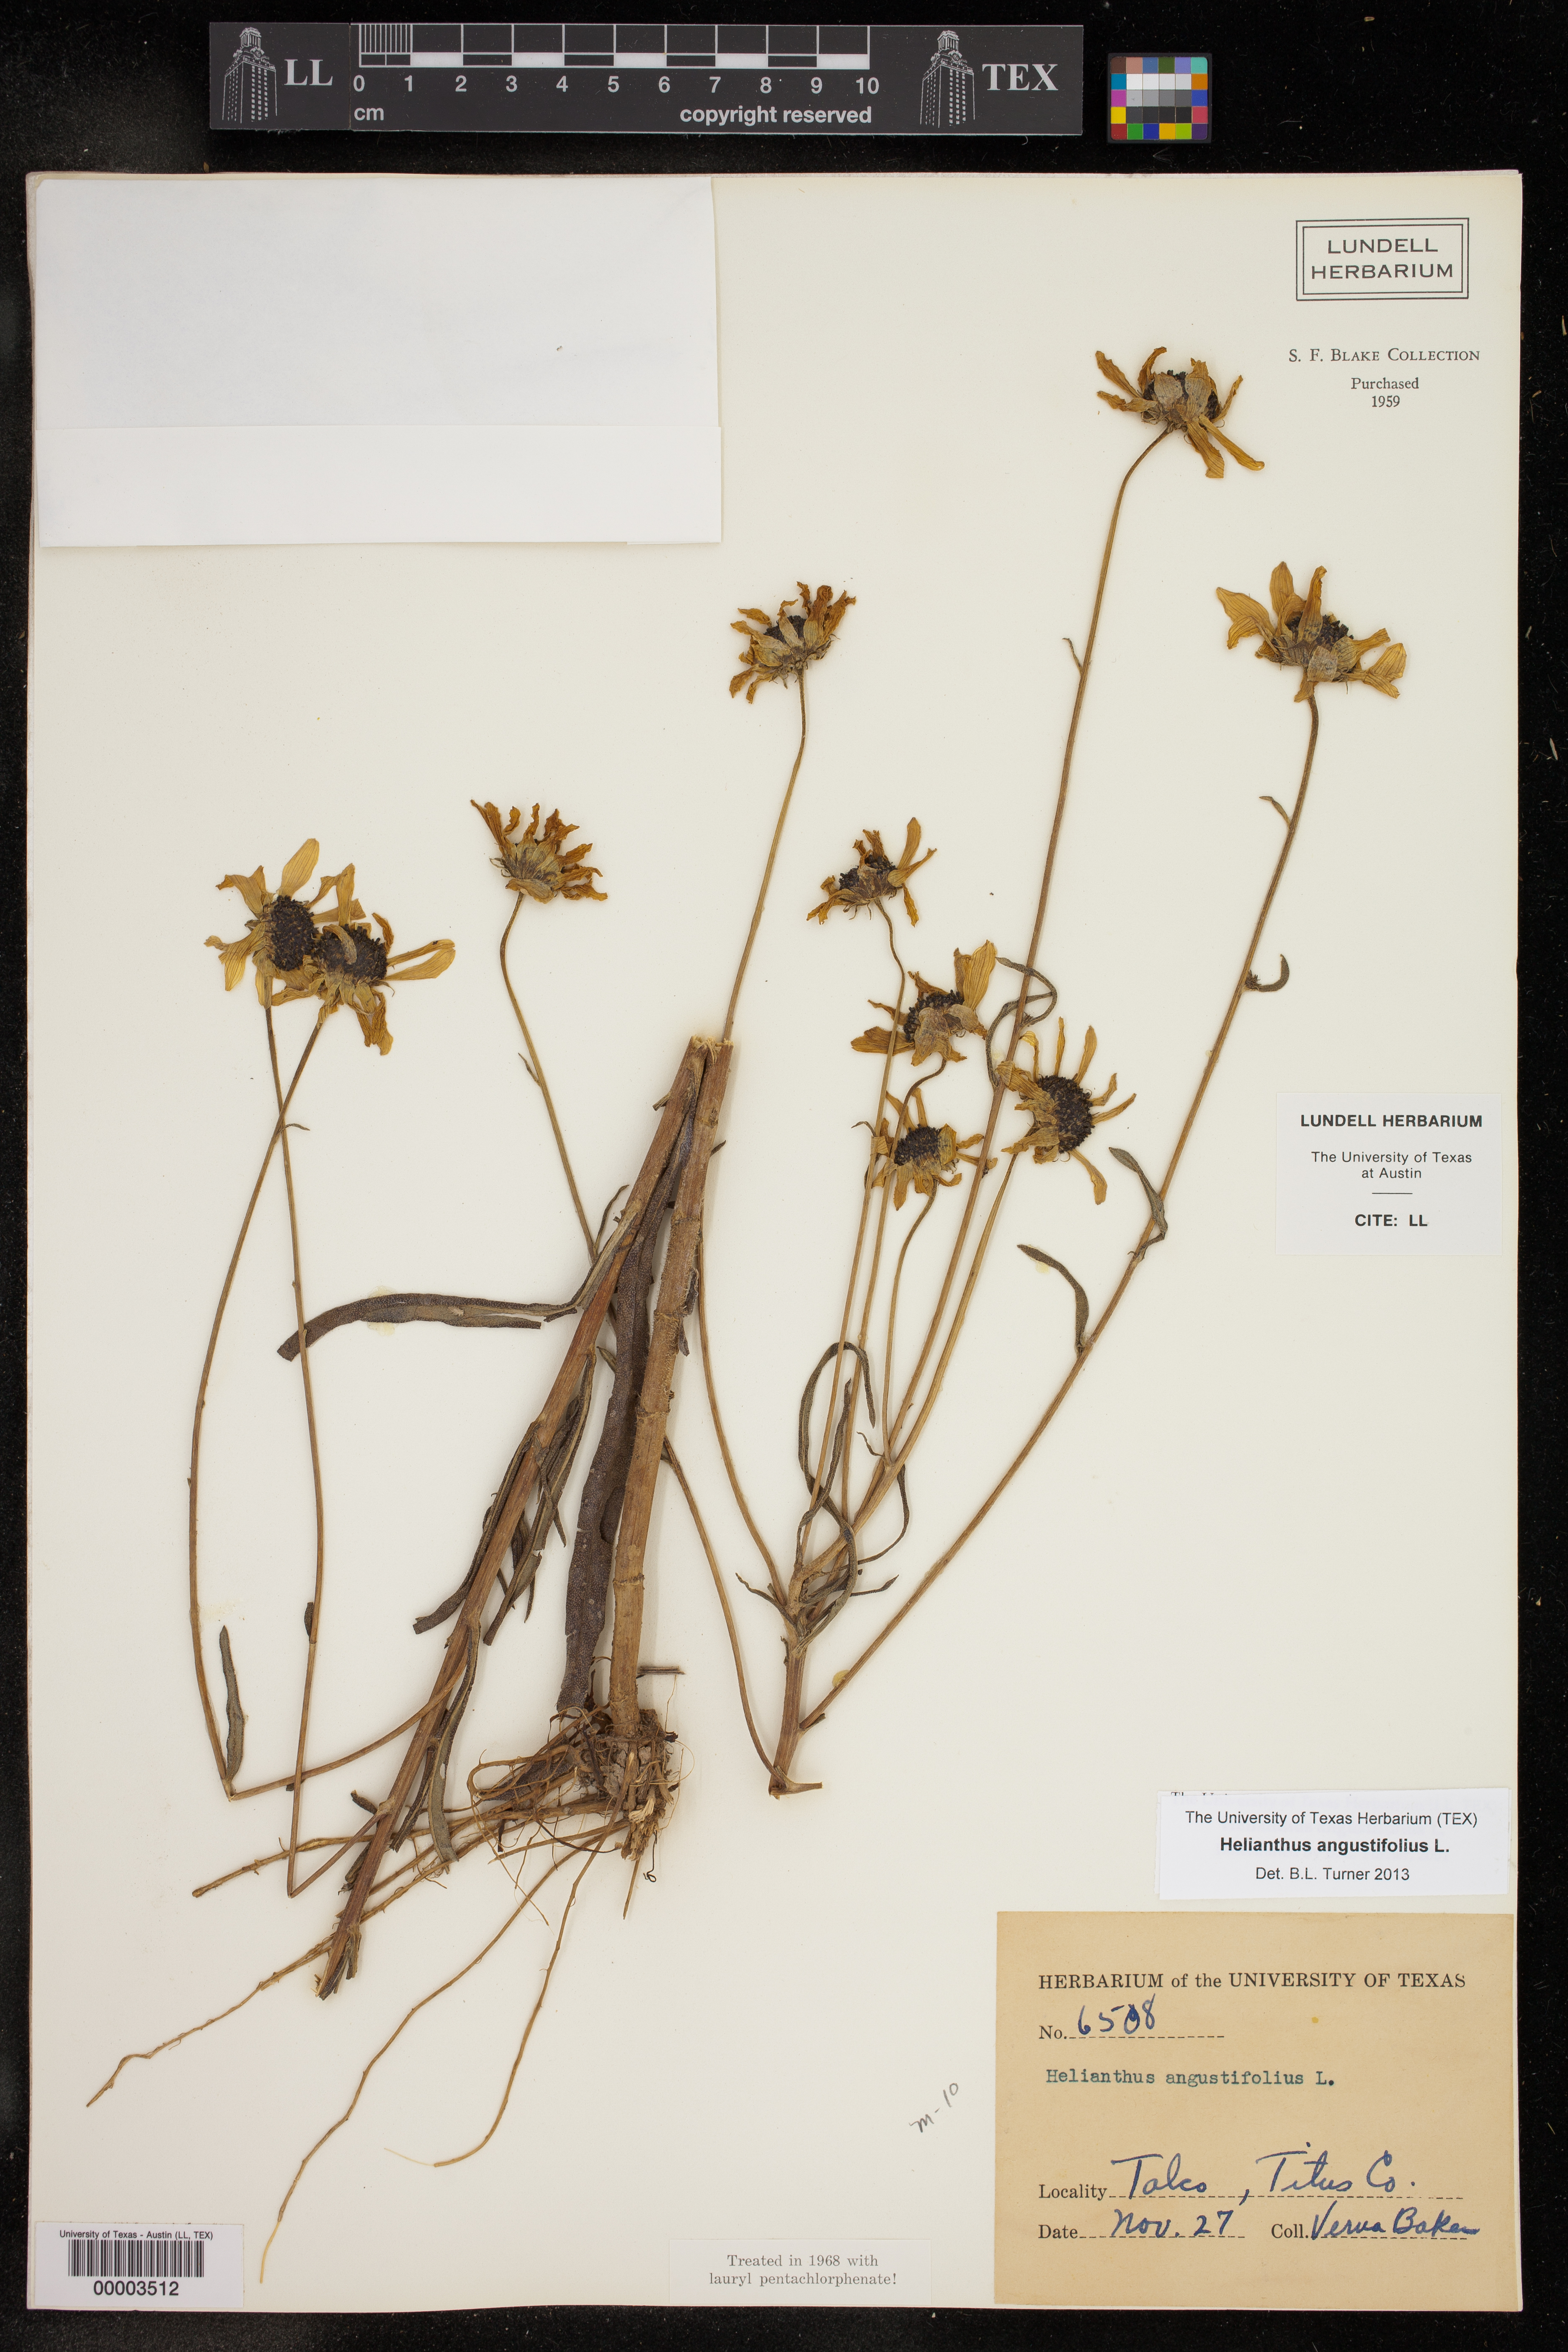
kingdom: Plantae
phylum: Tracheophyta
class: Magnoliopsida
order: Asterales
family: Asteraceae
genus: Helianthus
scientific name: Helianthus angustifolius
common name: Swamp sunflower
